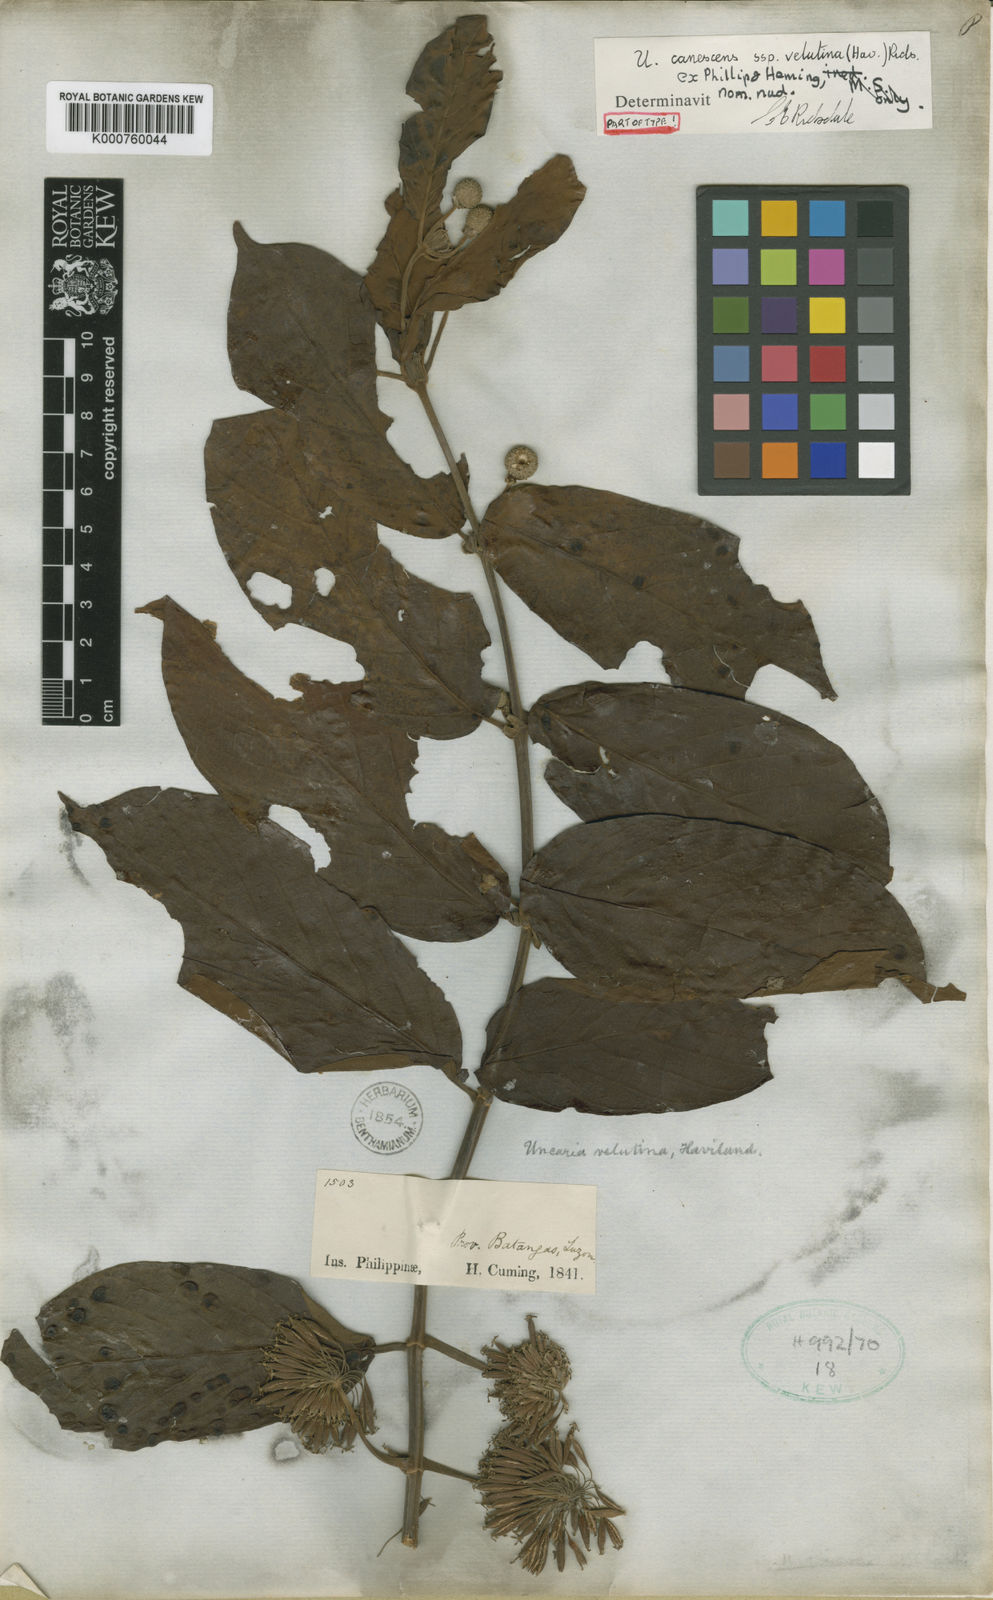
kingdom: Plantae
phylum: Tracheophyta
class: Magnoliopsida
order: Gentianales
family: Rubiaceae
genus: Uncaria
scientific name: Uncaria velutina
